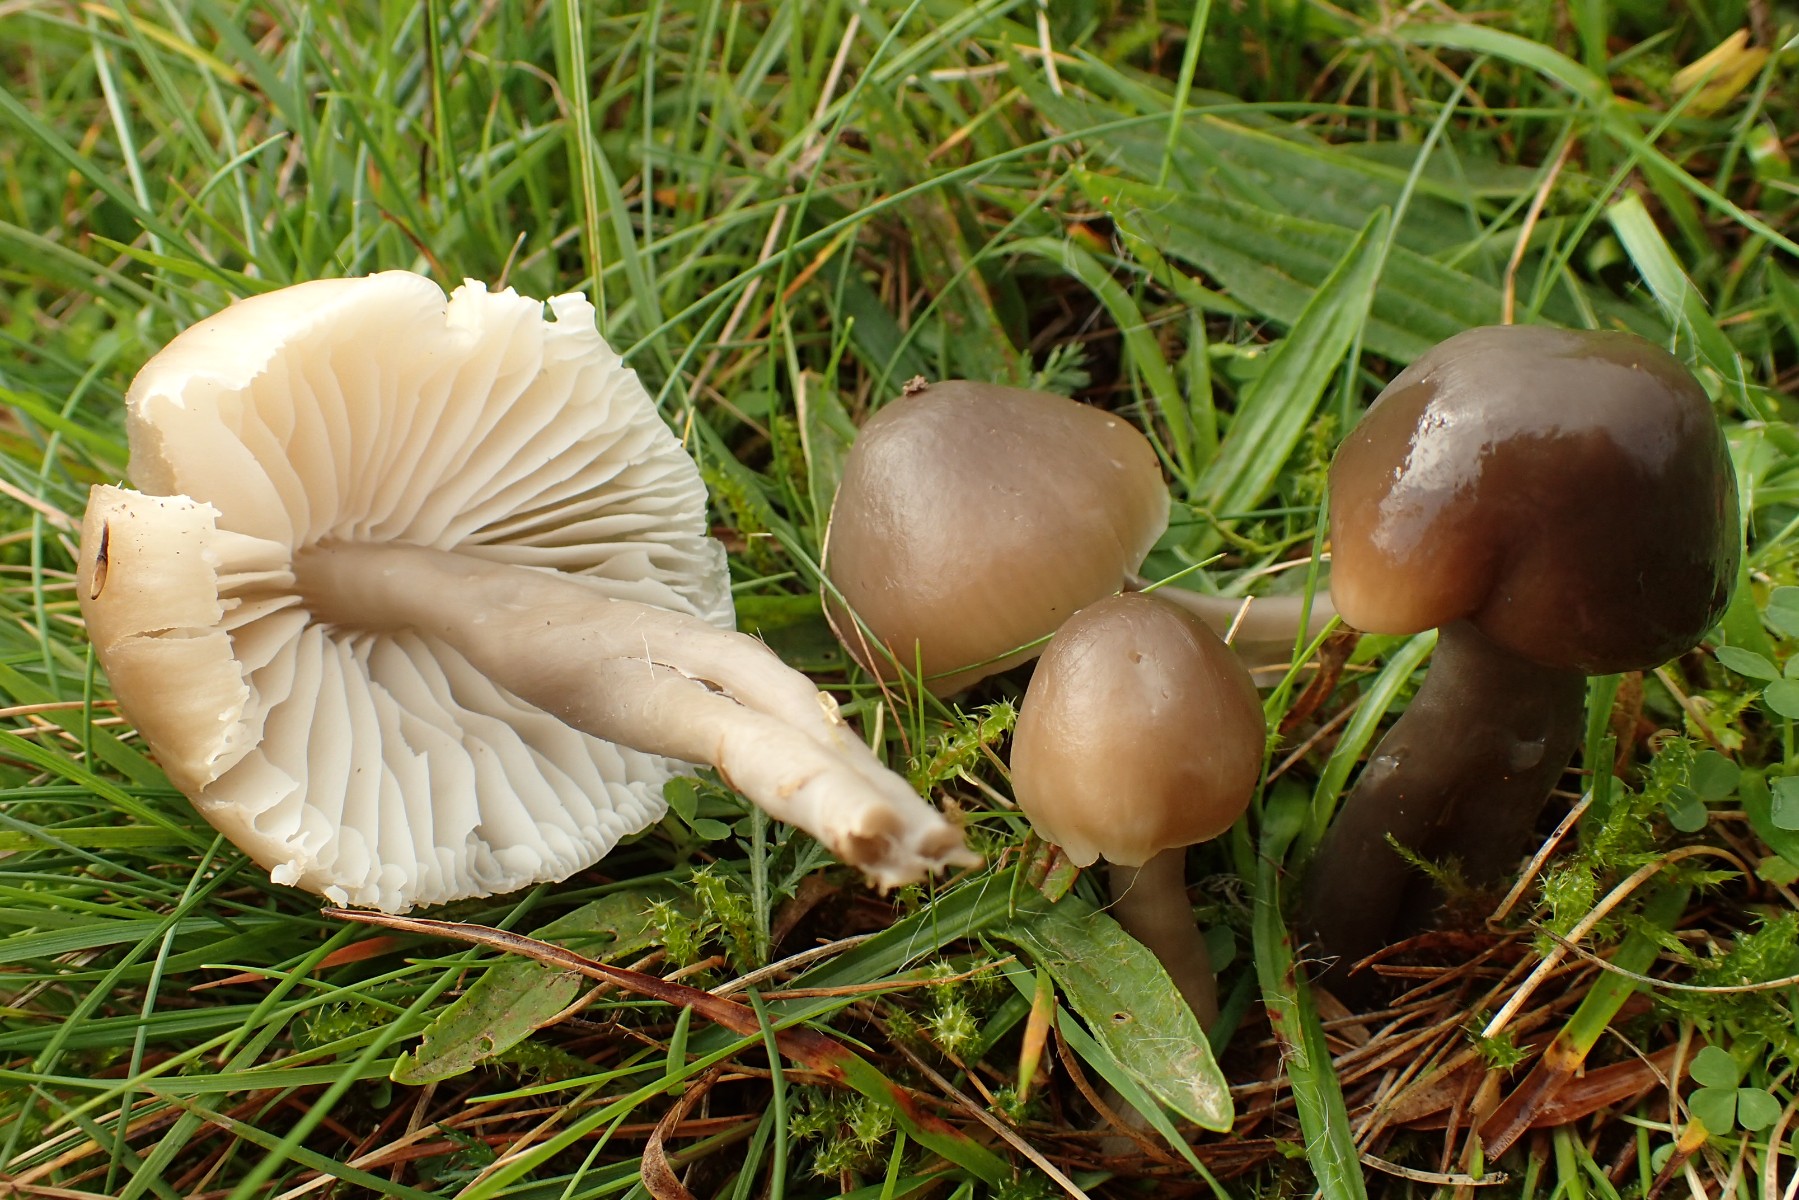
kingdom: Fungi
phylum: Basidiomycota
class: Agaricomycetes
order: Agaricales
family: Hygrophoraceae
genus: Gliophorus
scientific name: Gliophorus irrigatus
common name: slimet vokshat
